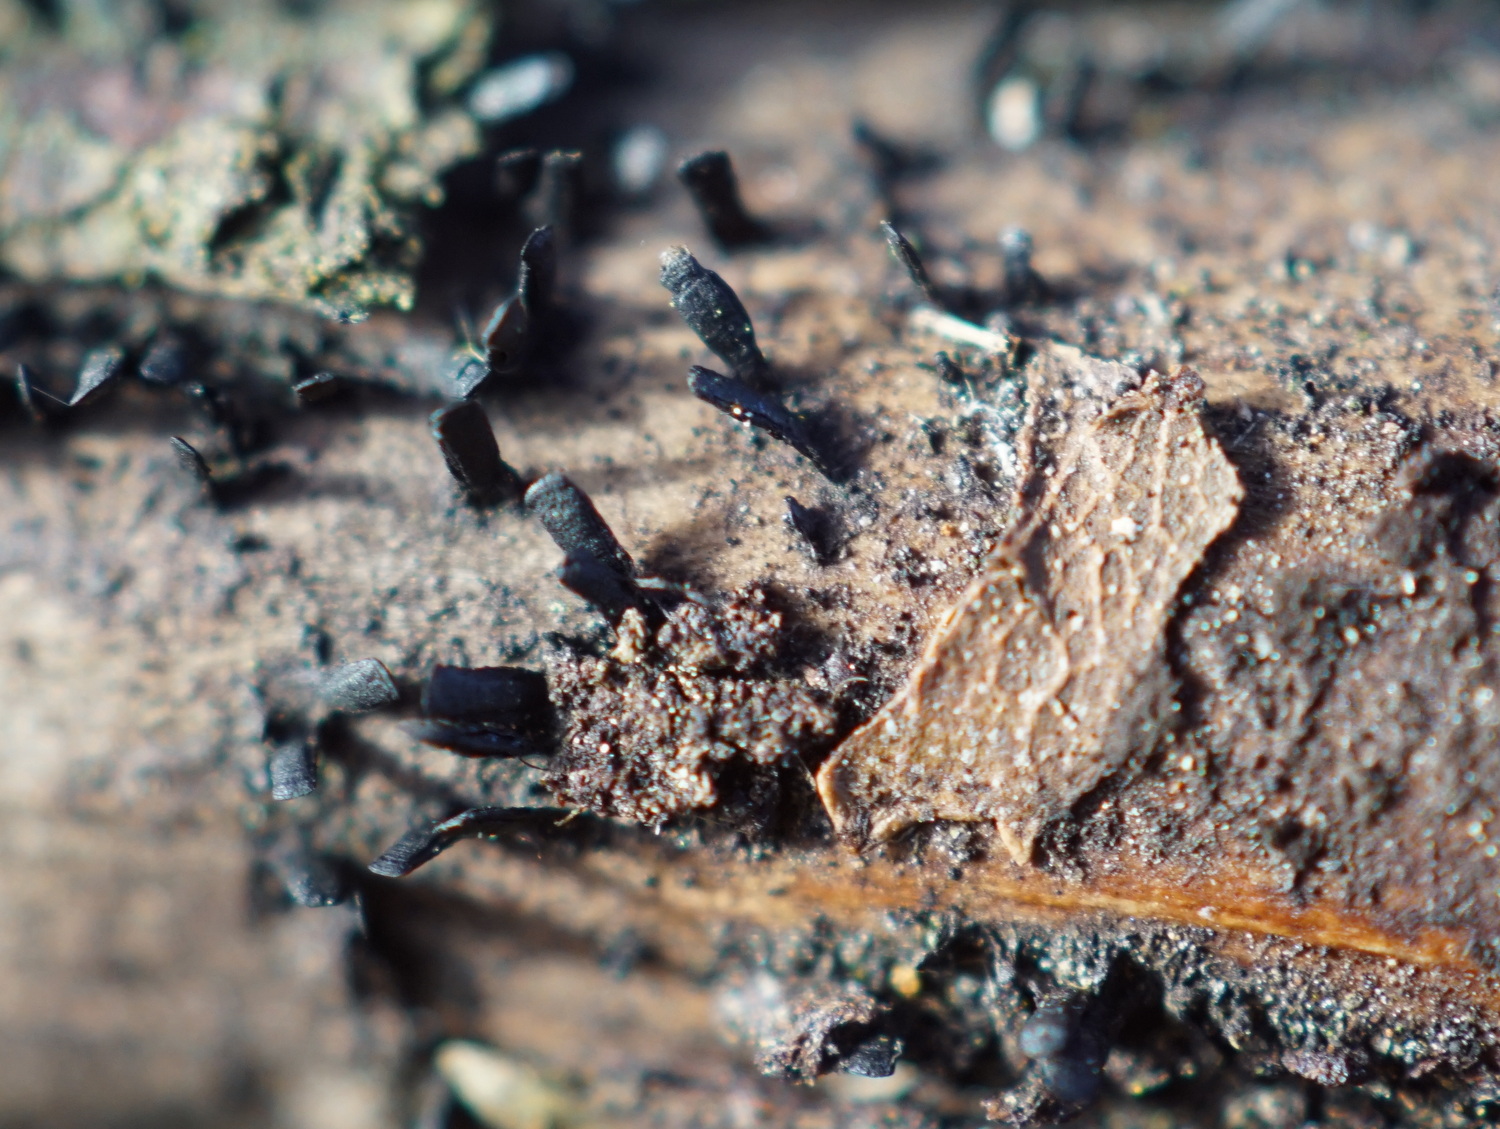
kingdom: Fungi
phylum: Ascomycota
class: Eurotiomycetes
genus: Glyphium
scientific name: Glyphium elatum
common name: kuløkse
